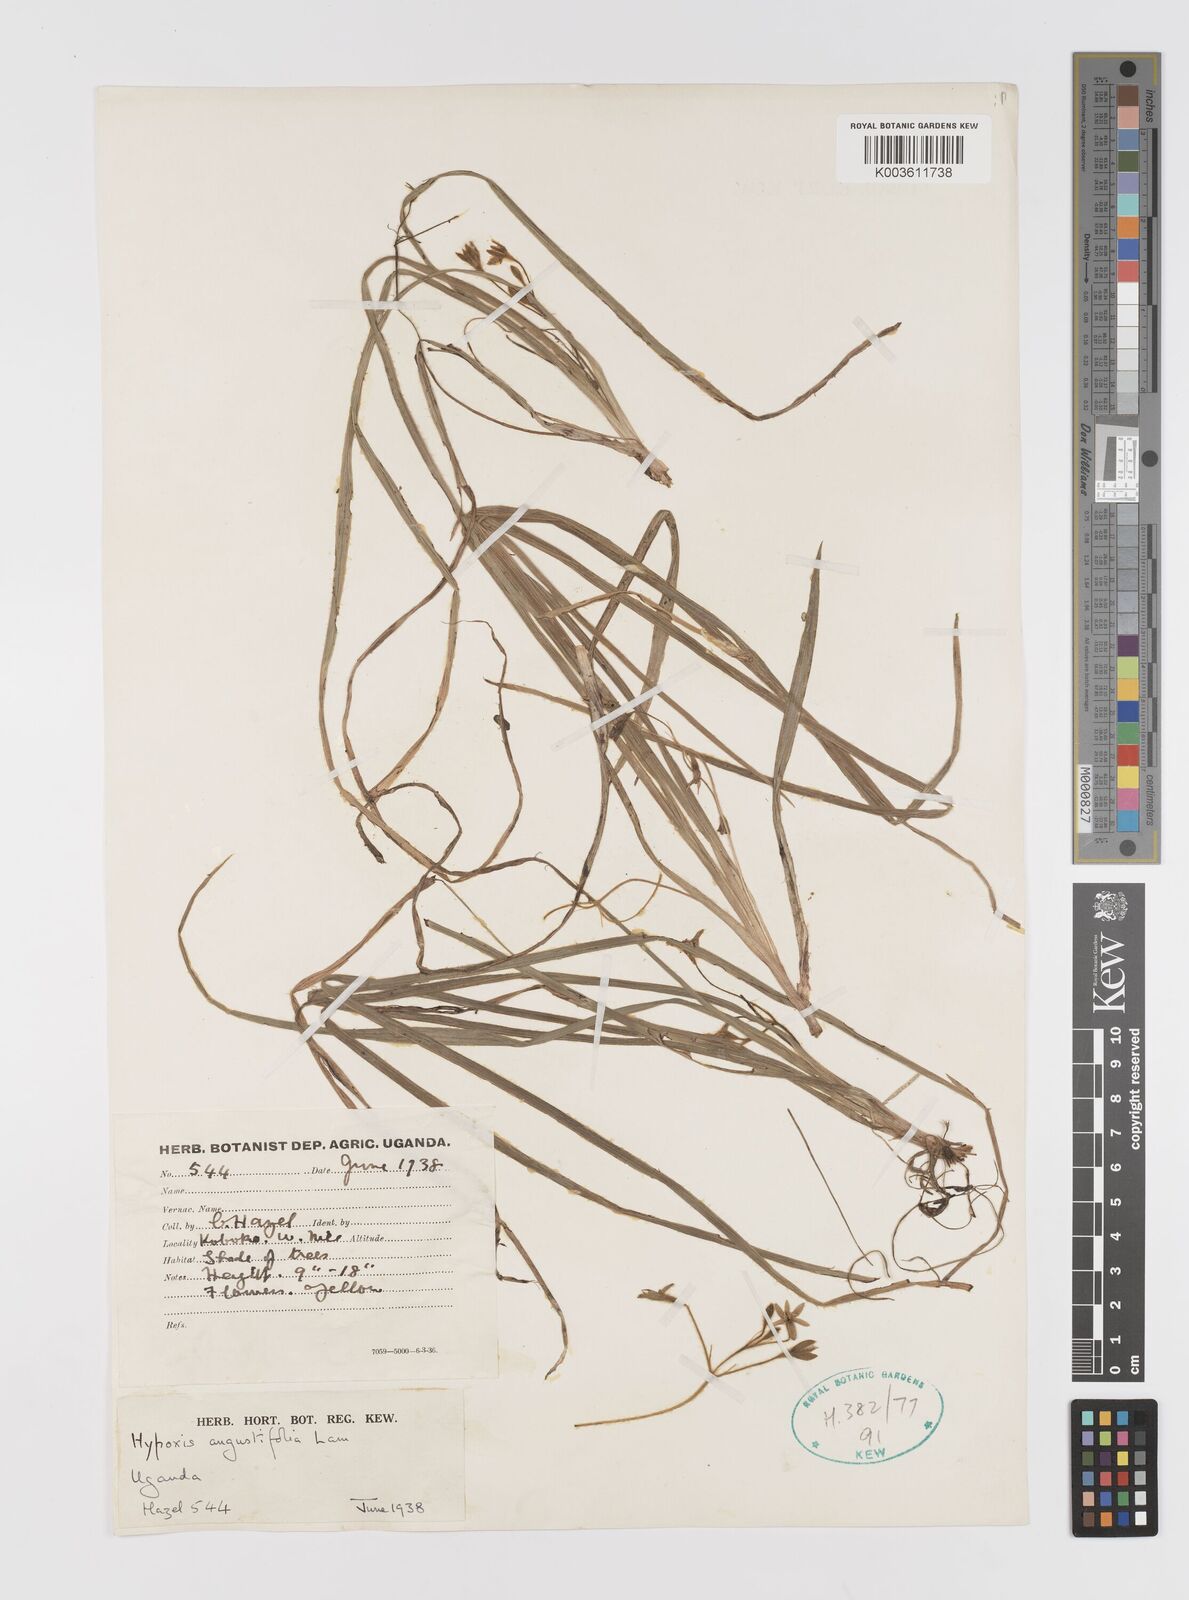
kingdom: Plantae
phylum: Tracheophyta
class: Liliopsida
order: Asparagales
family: Hypoxidaceae
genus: Hypoxis
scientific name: Hypoxis angustifolia
